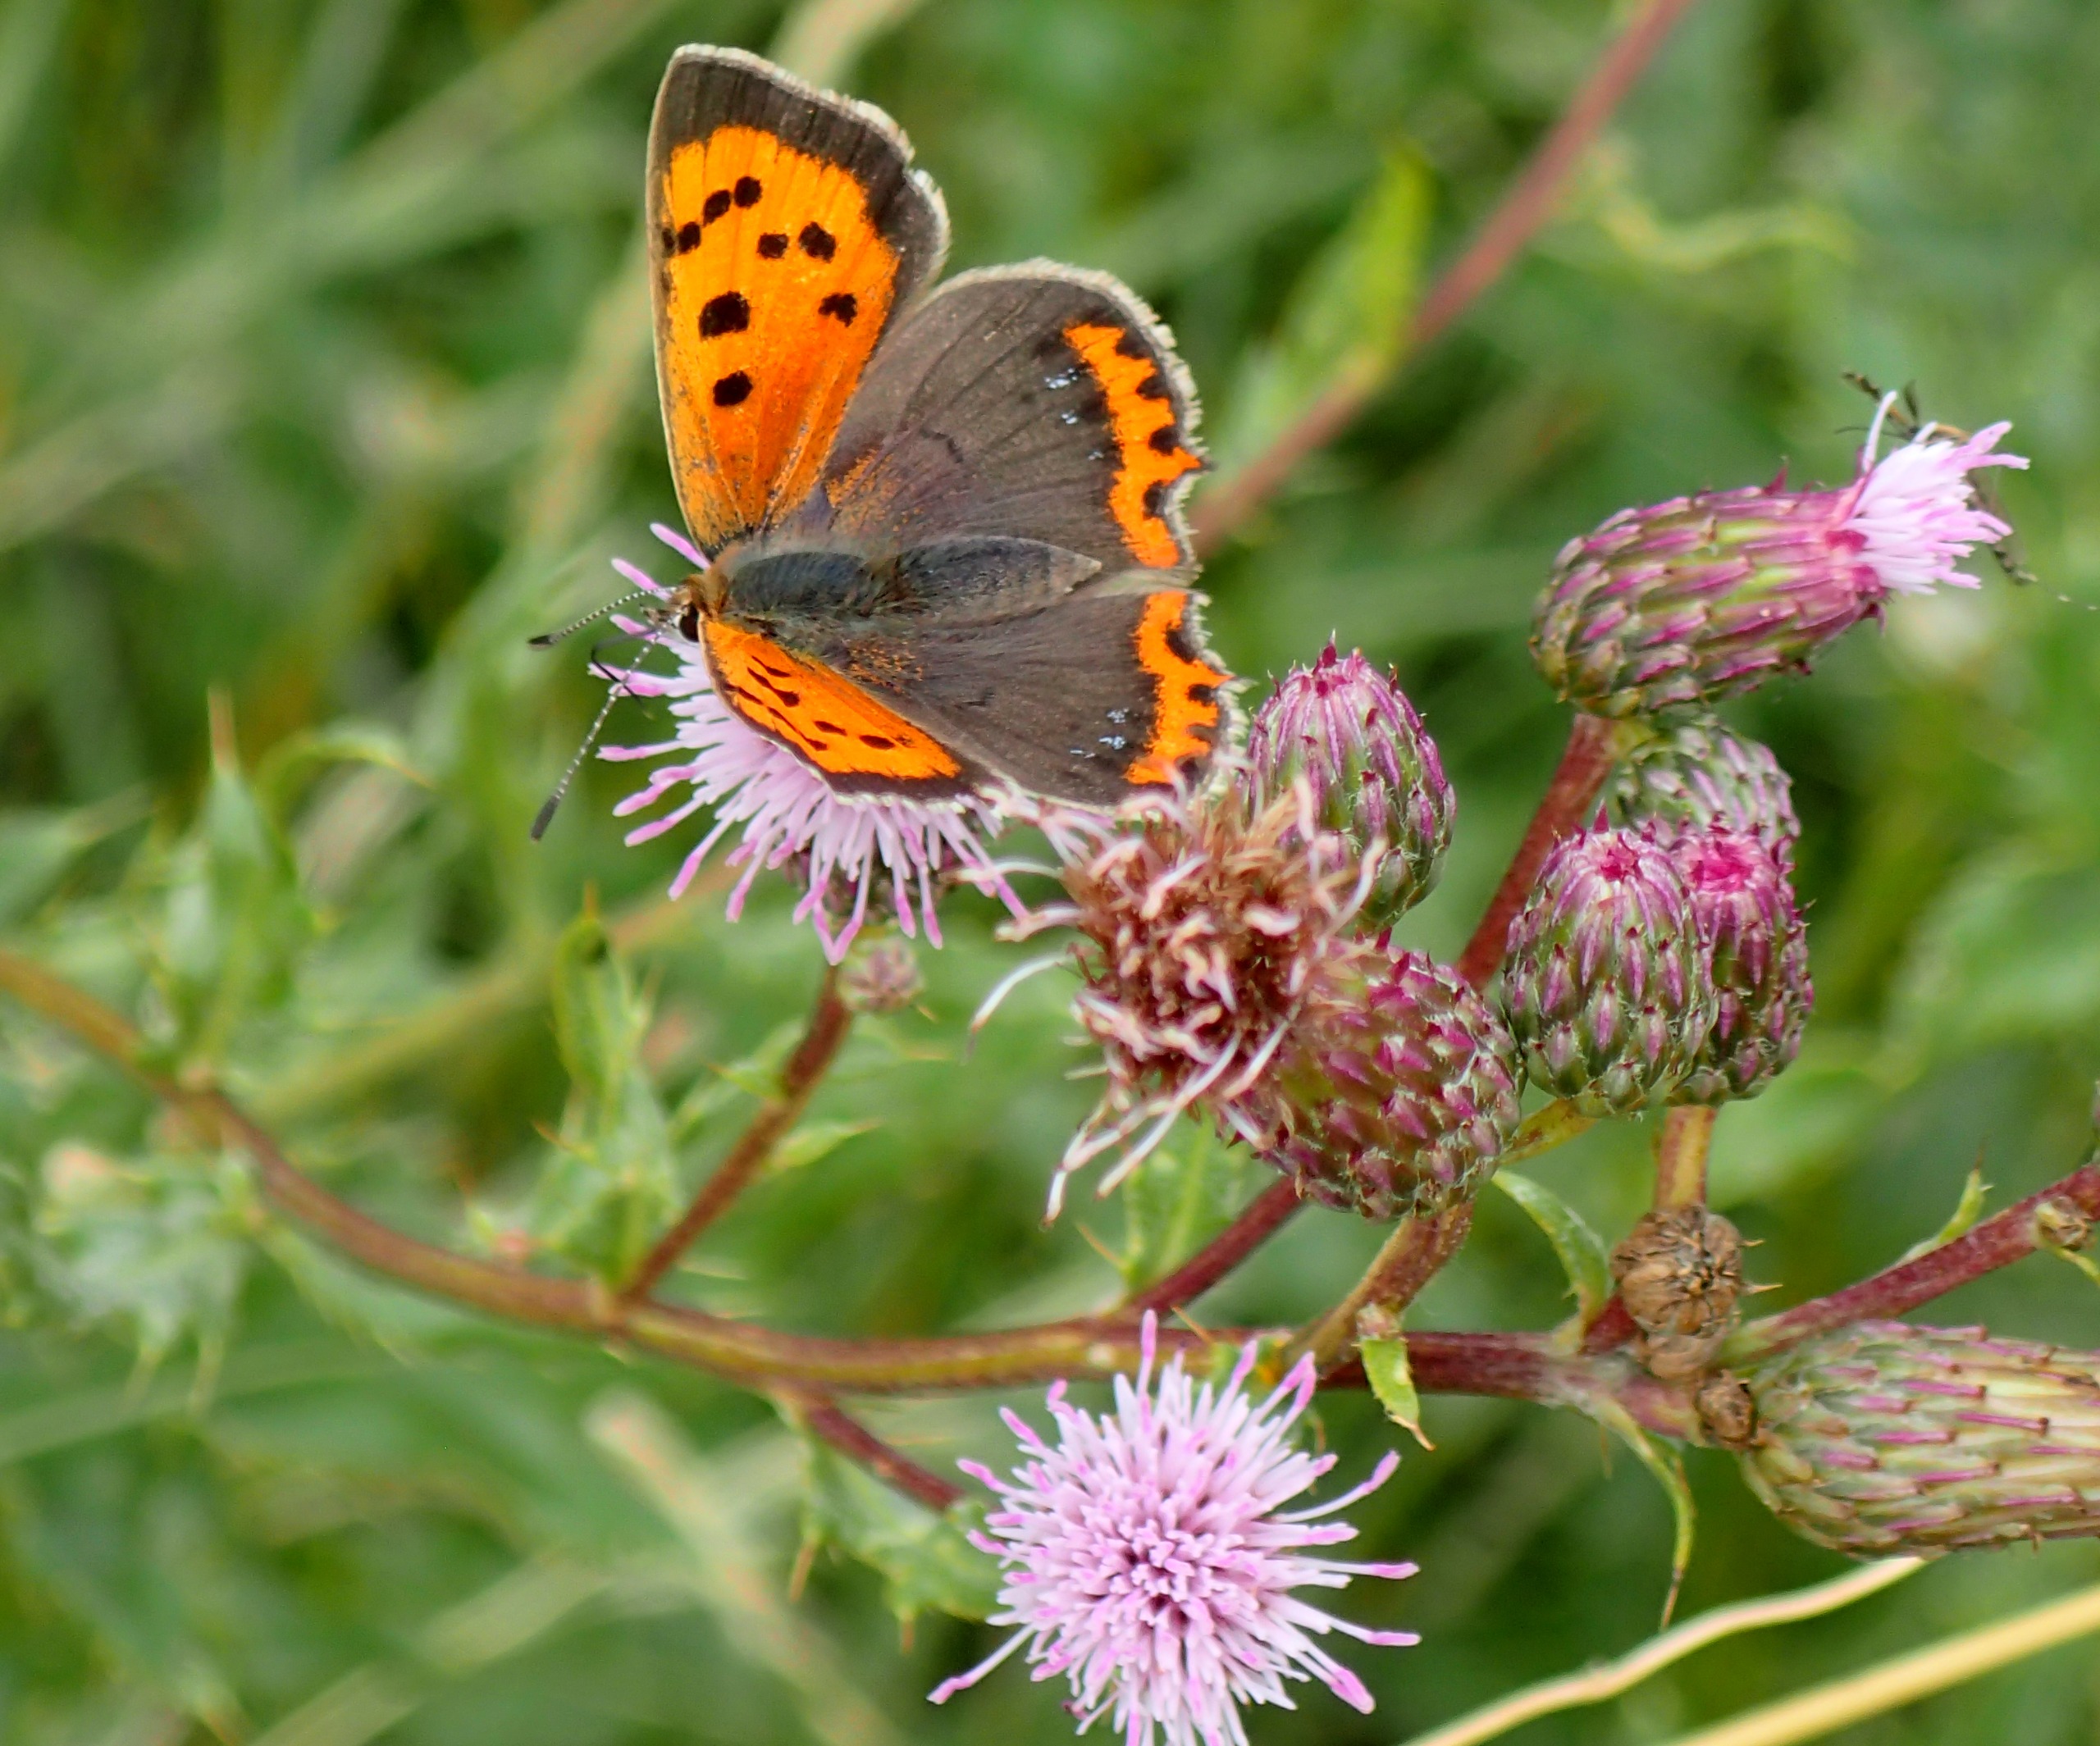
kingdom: Animalia
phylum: Arthropoda
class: Insecta
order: Lepidoptera
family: Lycaenidae
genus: Lycaena
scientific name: Lycaena phlaeas
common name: Lille ildfugl
